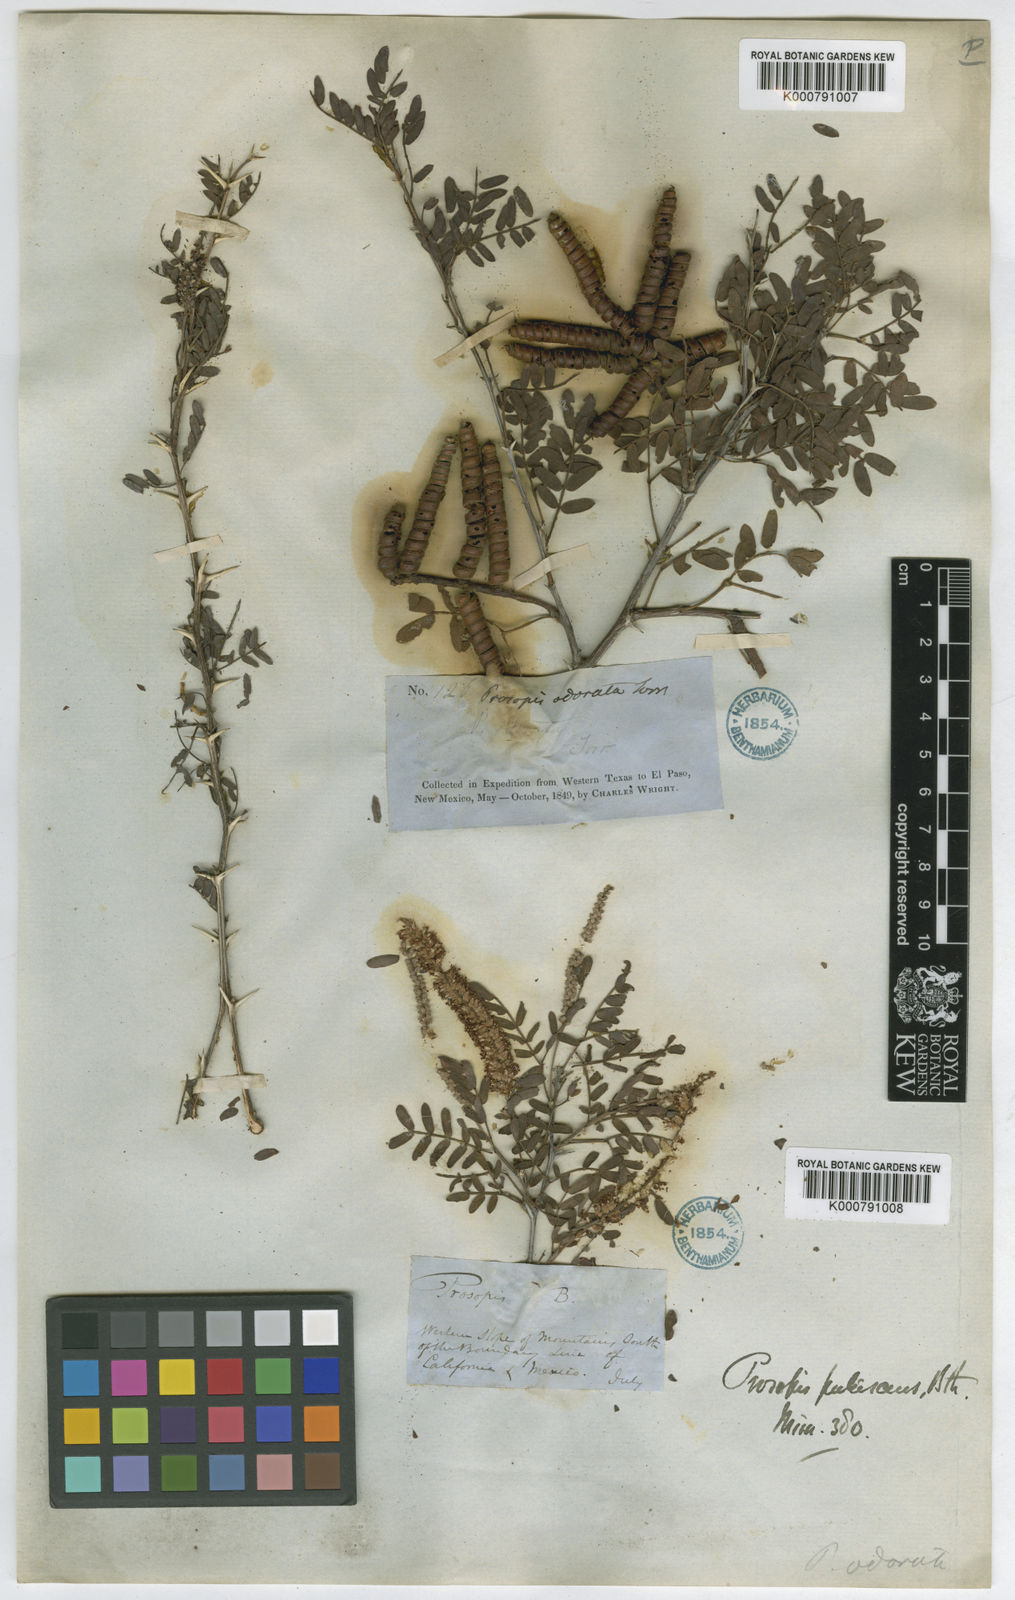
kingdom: Plantae
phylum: Tracheophyta
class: Magnoliopsida
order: Fabales
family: Fabaceae
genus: Prosopis
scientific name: Prosopis
